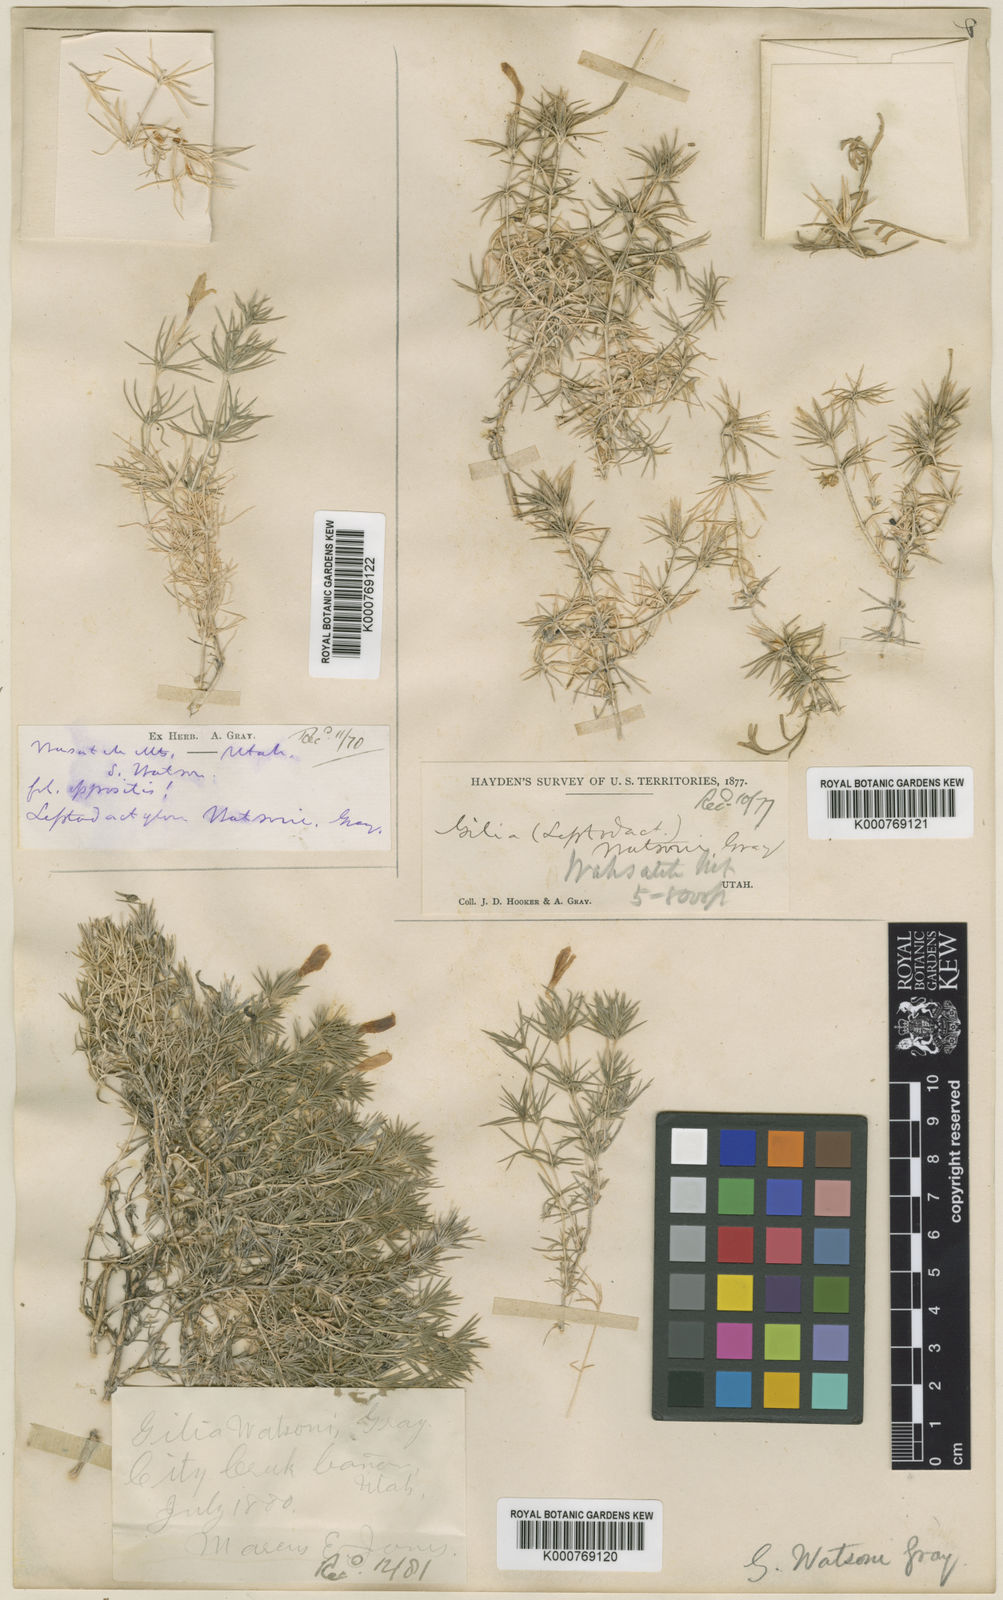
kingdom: Plantae
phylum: Tracheophyta
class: Magnoliopsida
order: Ericales
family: Polemoniaceae
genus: Linanthus
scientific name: Linanthus pungens
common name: Granite prickly phlox
